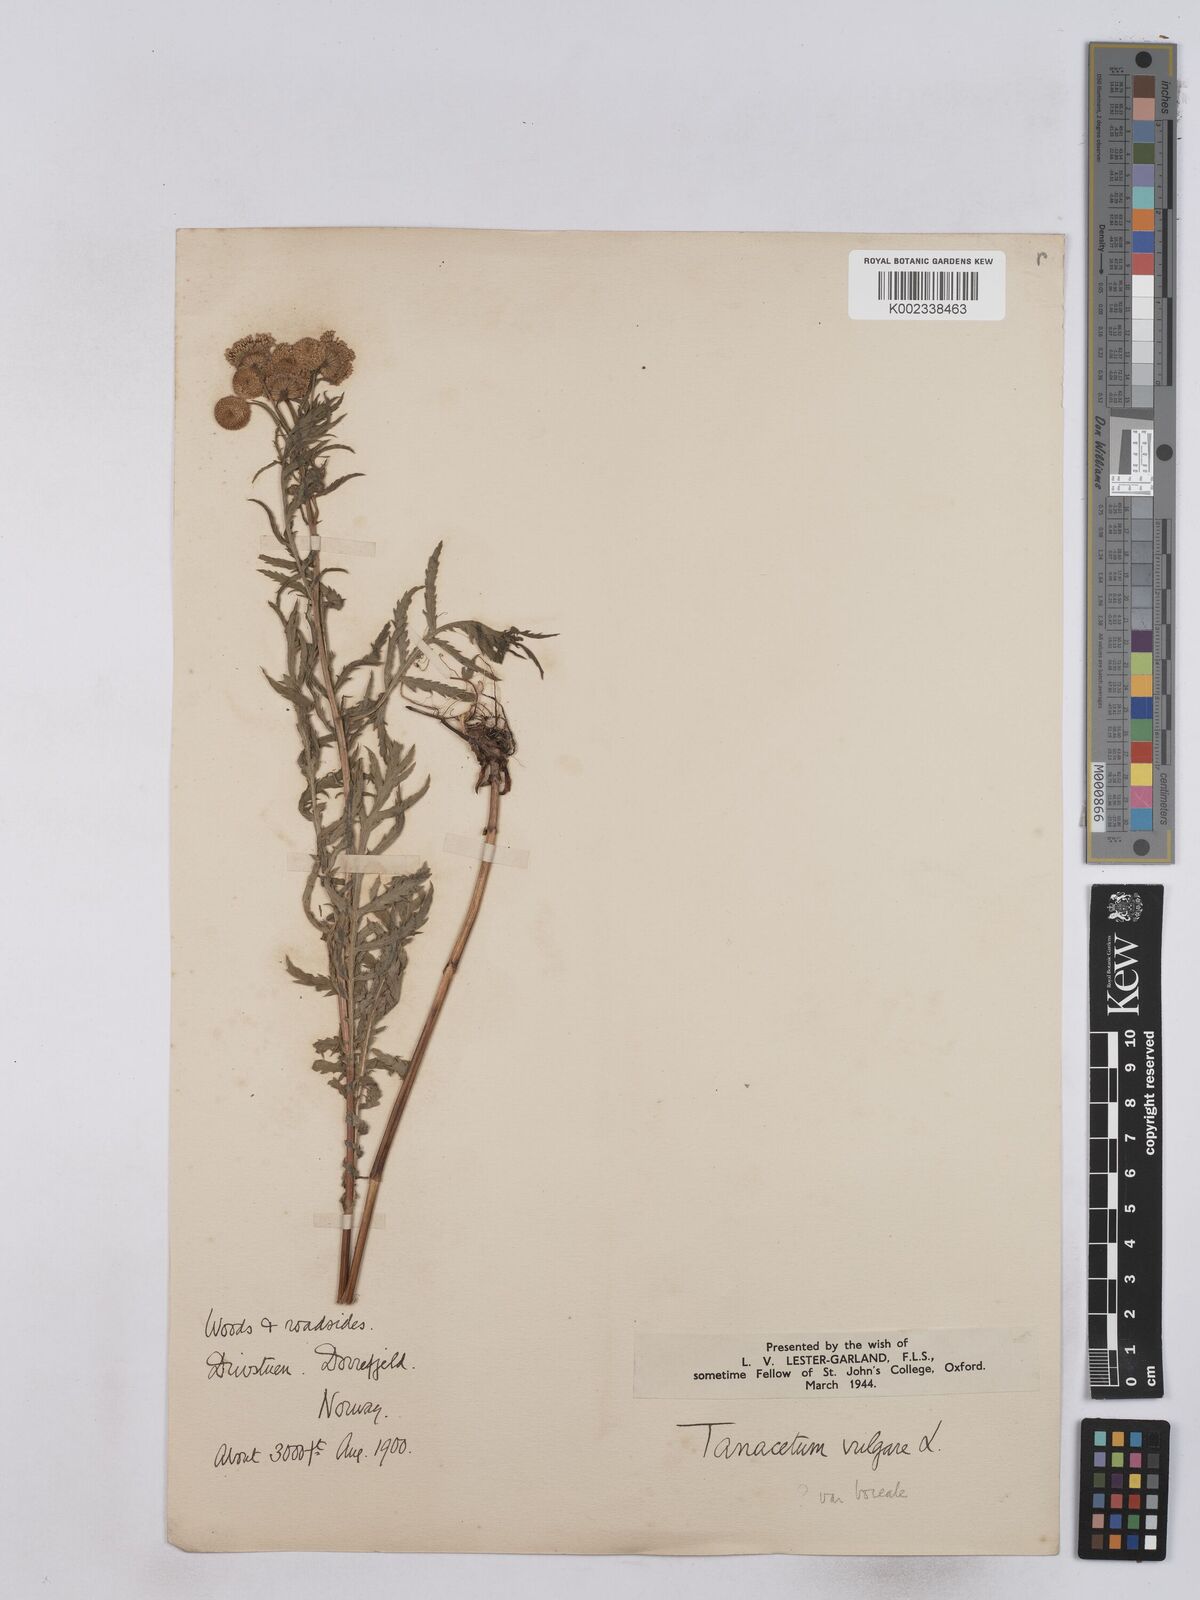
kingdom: Plantae
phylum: Tracheophyta
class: Magnoliopsida
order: Asterales
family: Asteraceae
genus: Tanacetum
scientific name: Tanacetum vulgare
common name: Common tansy
